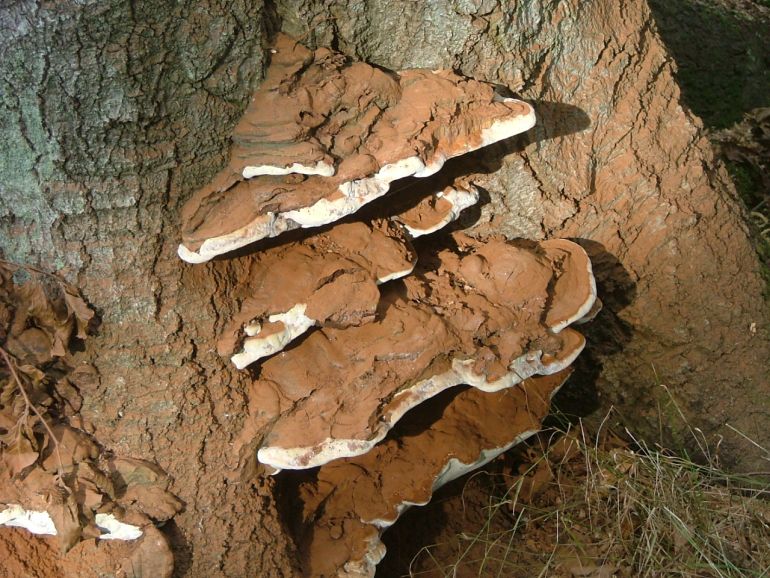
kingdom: Fungi
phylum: Basidiomycota
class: Agaricomycetes
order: Polyporales
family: Polyporaceae
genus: Ganoderma
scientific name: Ganoderma pfeifferi
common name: kobberrød lakporesvamp
